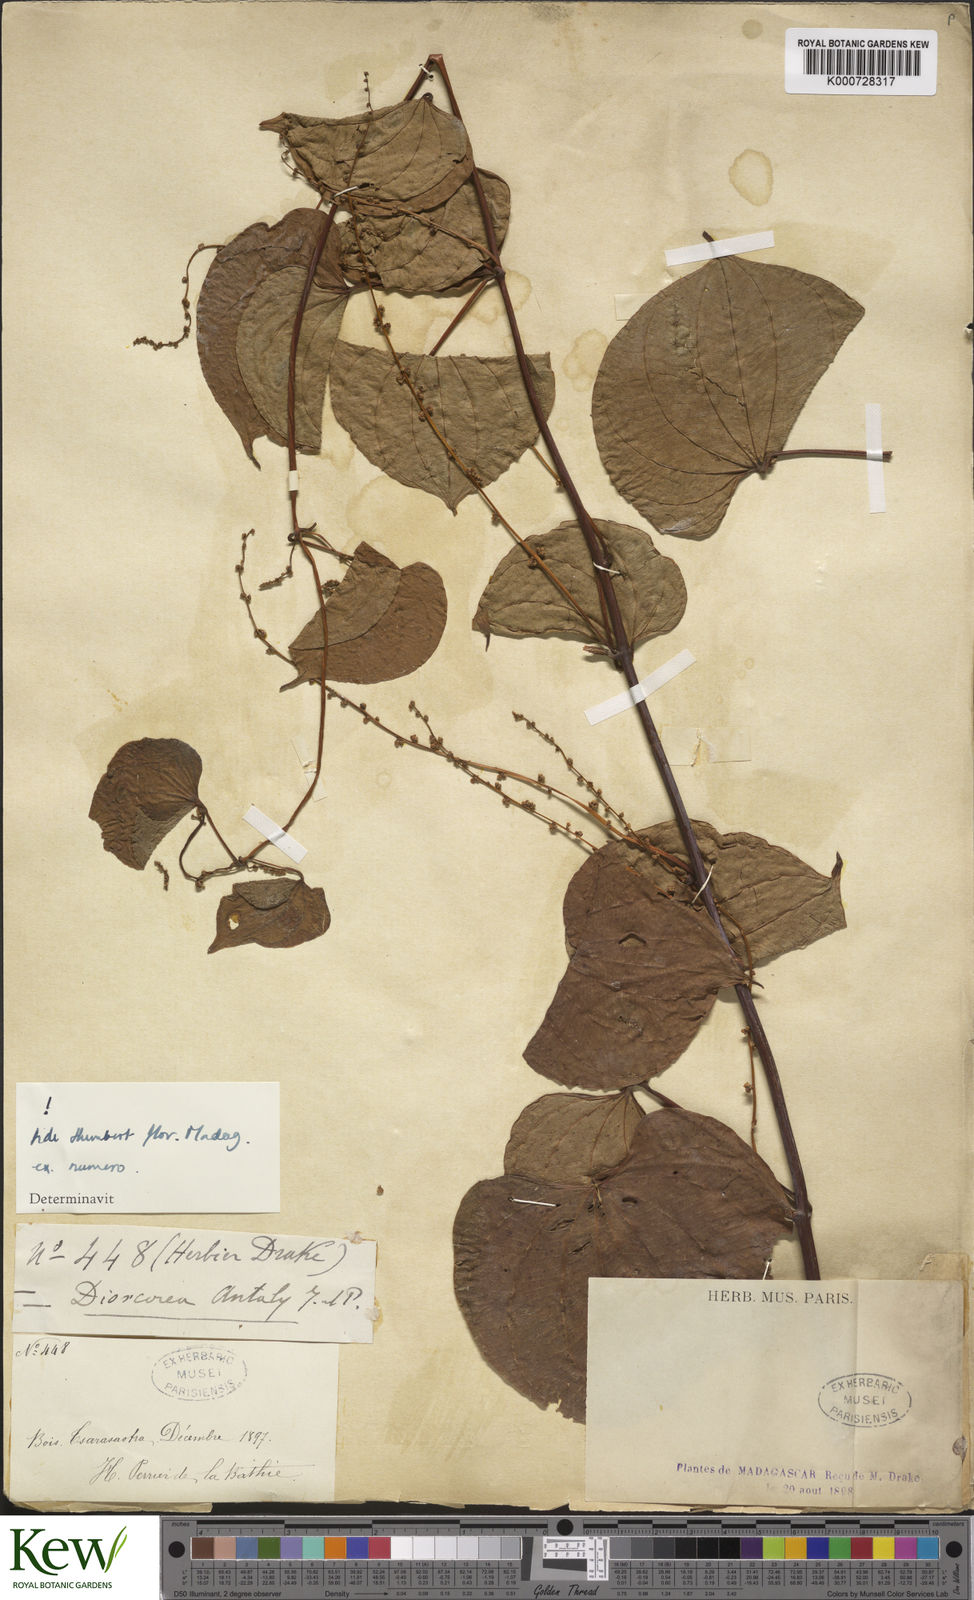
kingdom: Plantae
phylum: Tracheophyta
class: Liliopsida
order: Dioscoreales
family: Dioscoreaceae
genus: Dioscorea
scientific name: Dioscorea antaly
